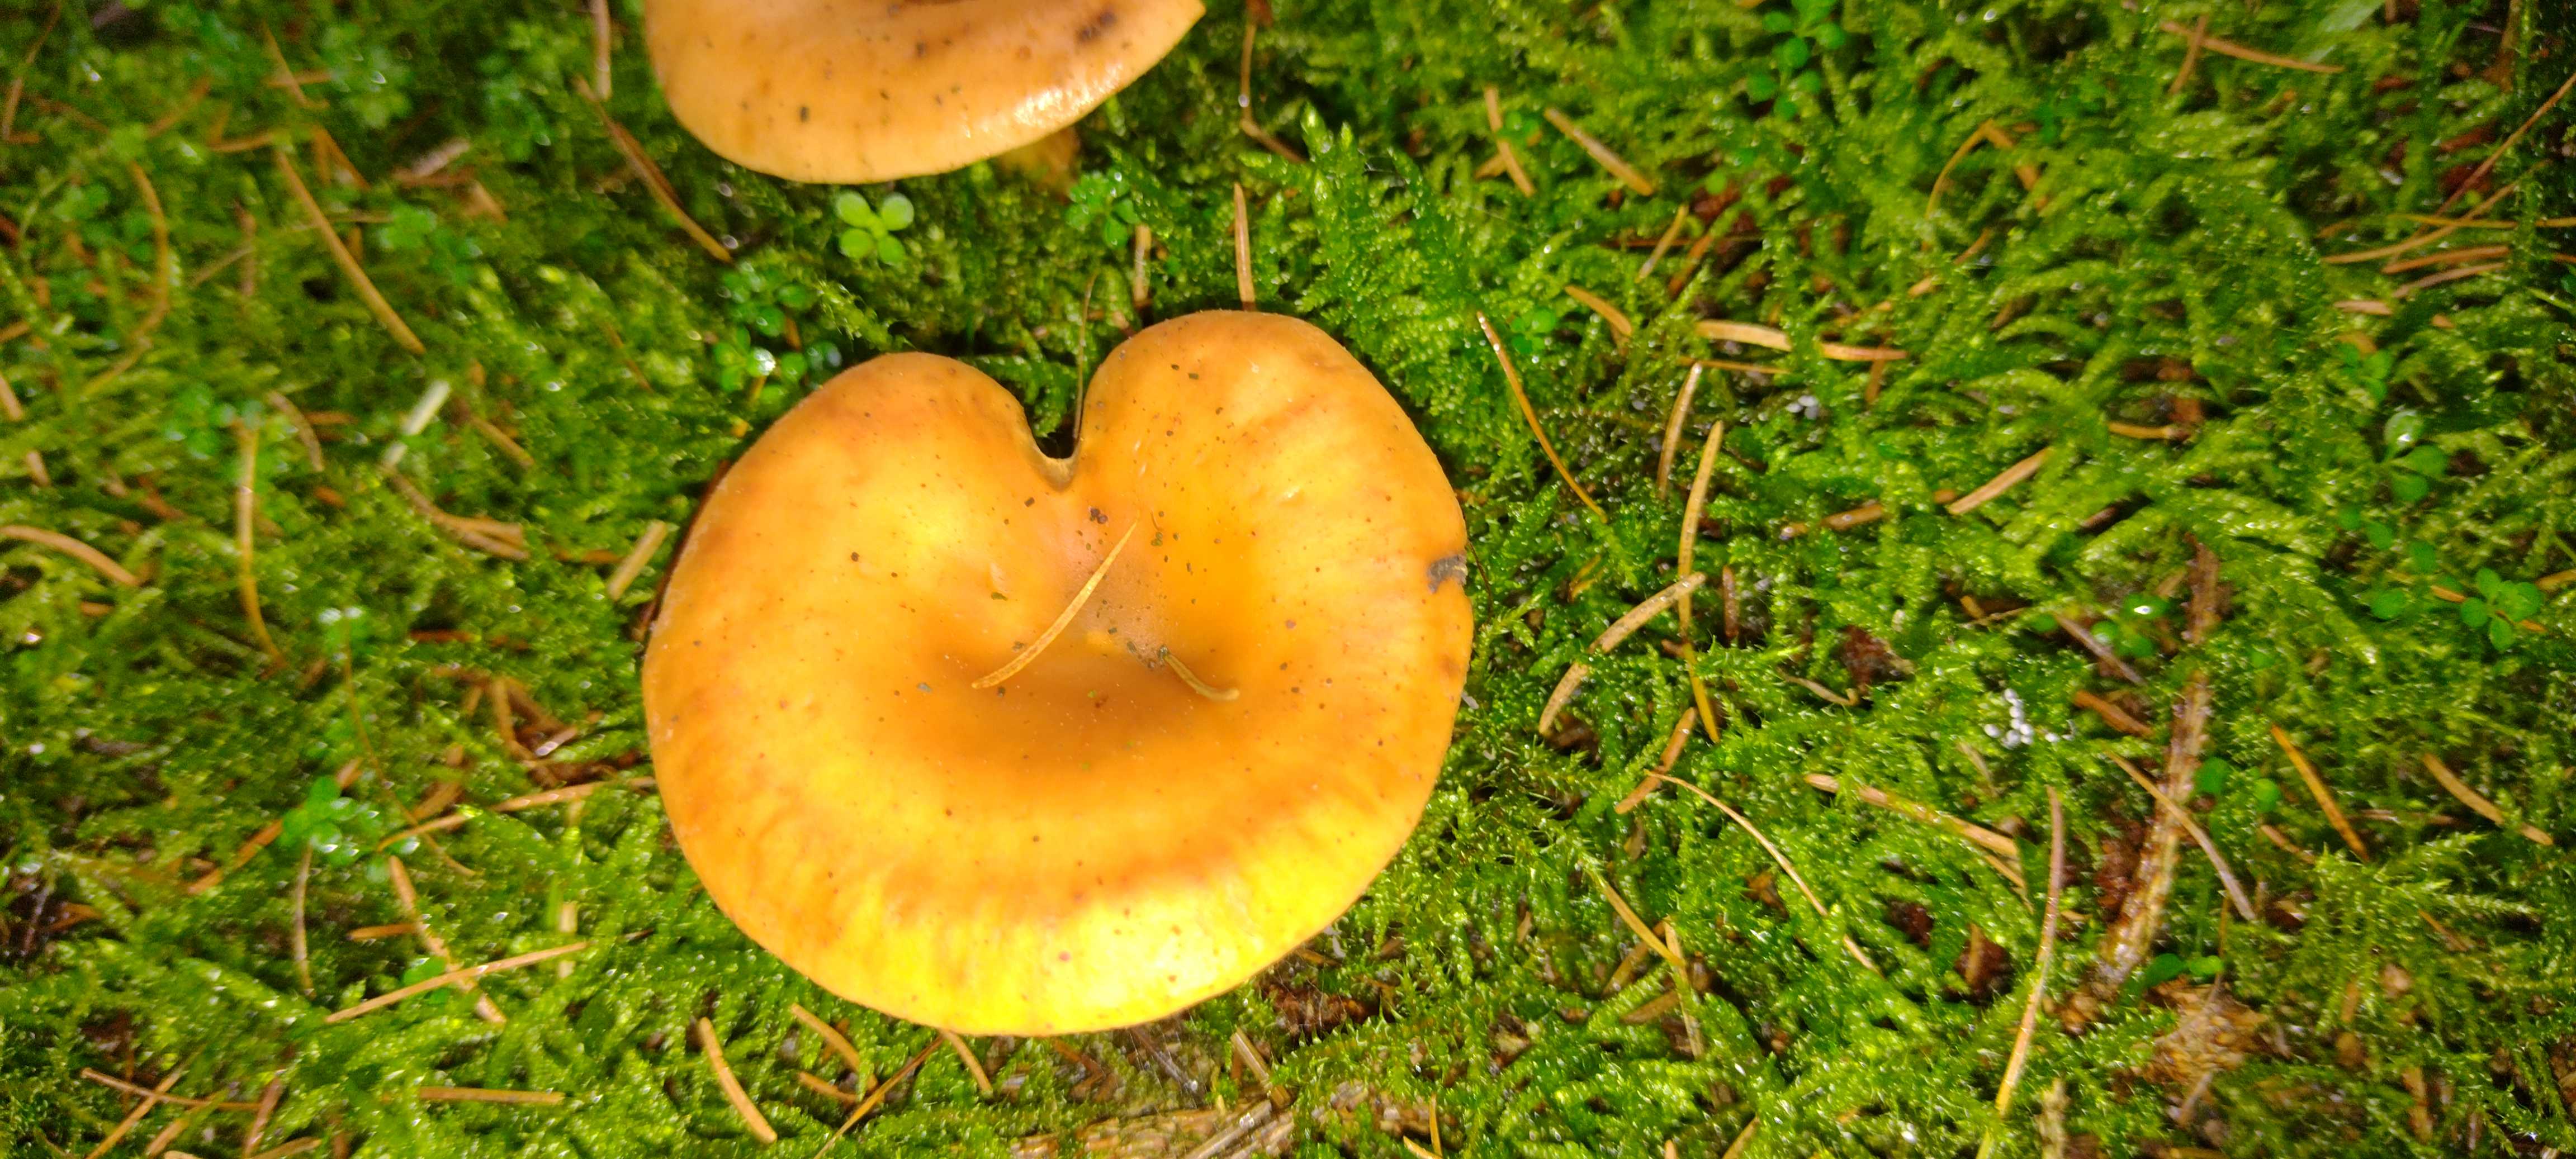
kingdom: Fungi
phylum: Basidiomycota
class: Agaricomycetes
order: Agaricales
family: Tricholomataceae
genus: Paralepista
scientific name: Paralepista flaccida
